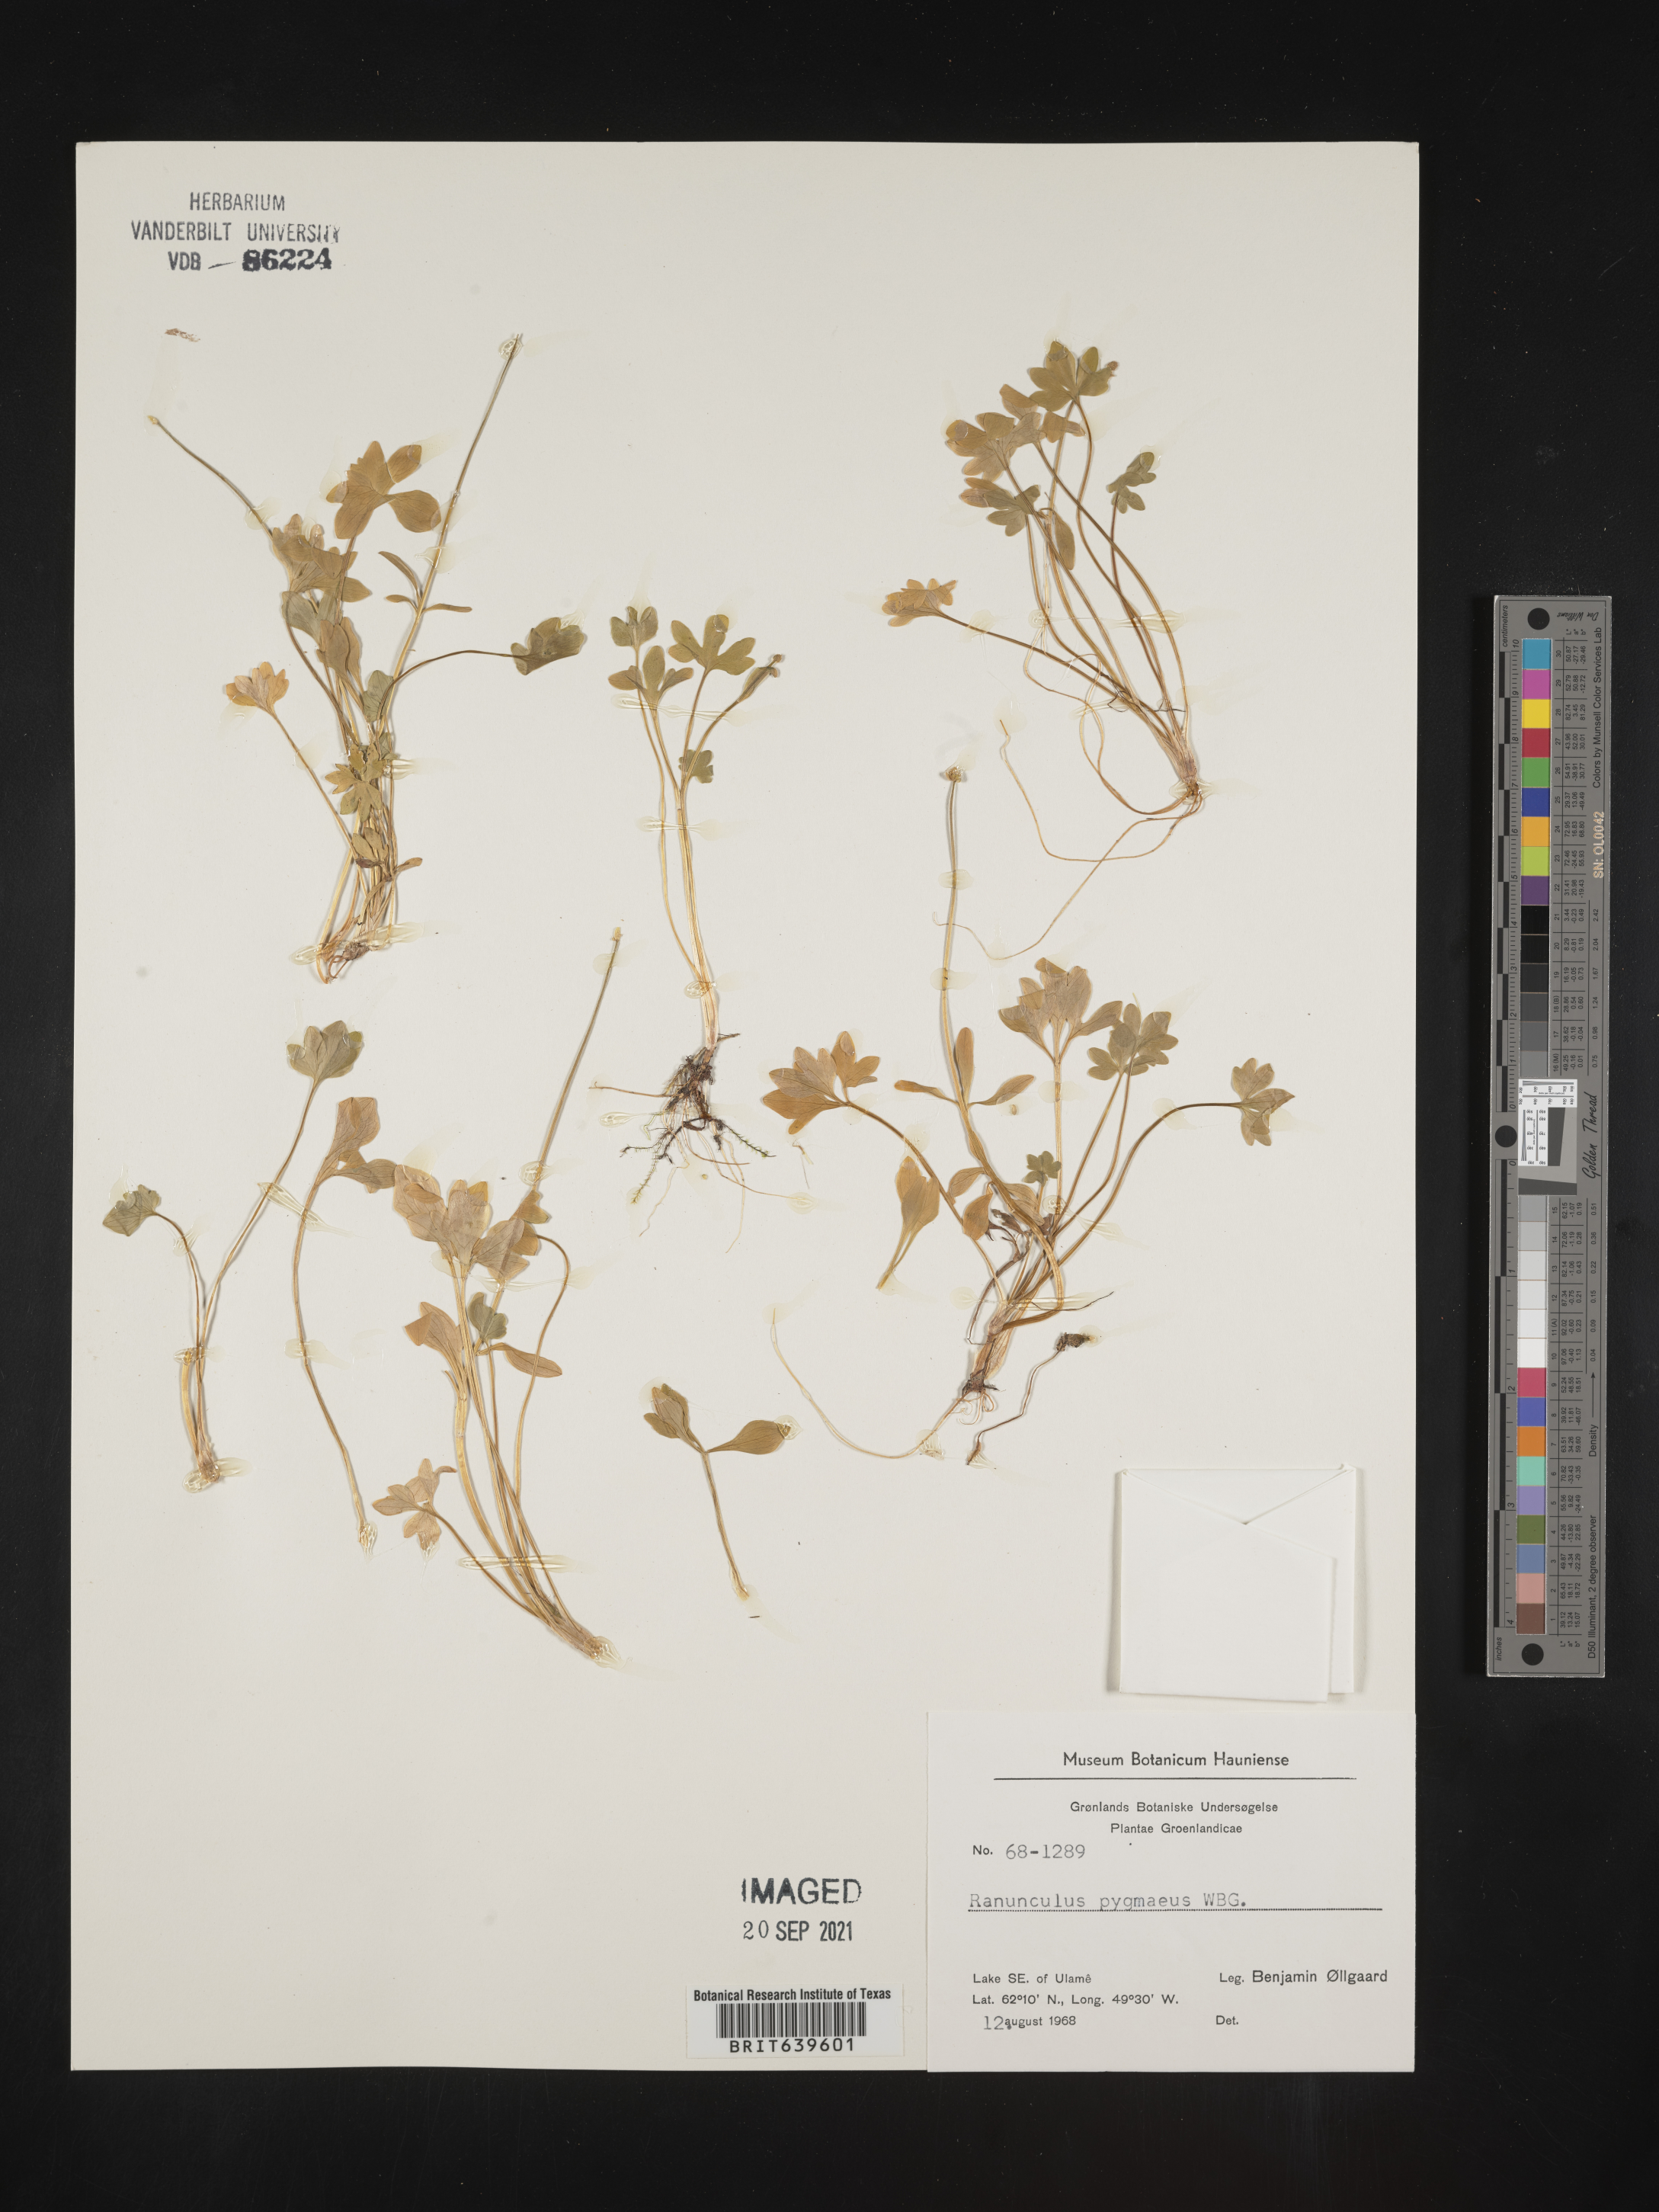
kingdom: Plantae
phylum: Tracheophyta
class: Magnoliopsida
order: Ranunculales
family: Ranunculaceae
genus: Ranunculus
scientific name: Ranunculus
